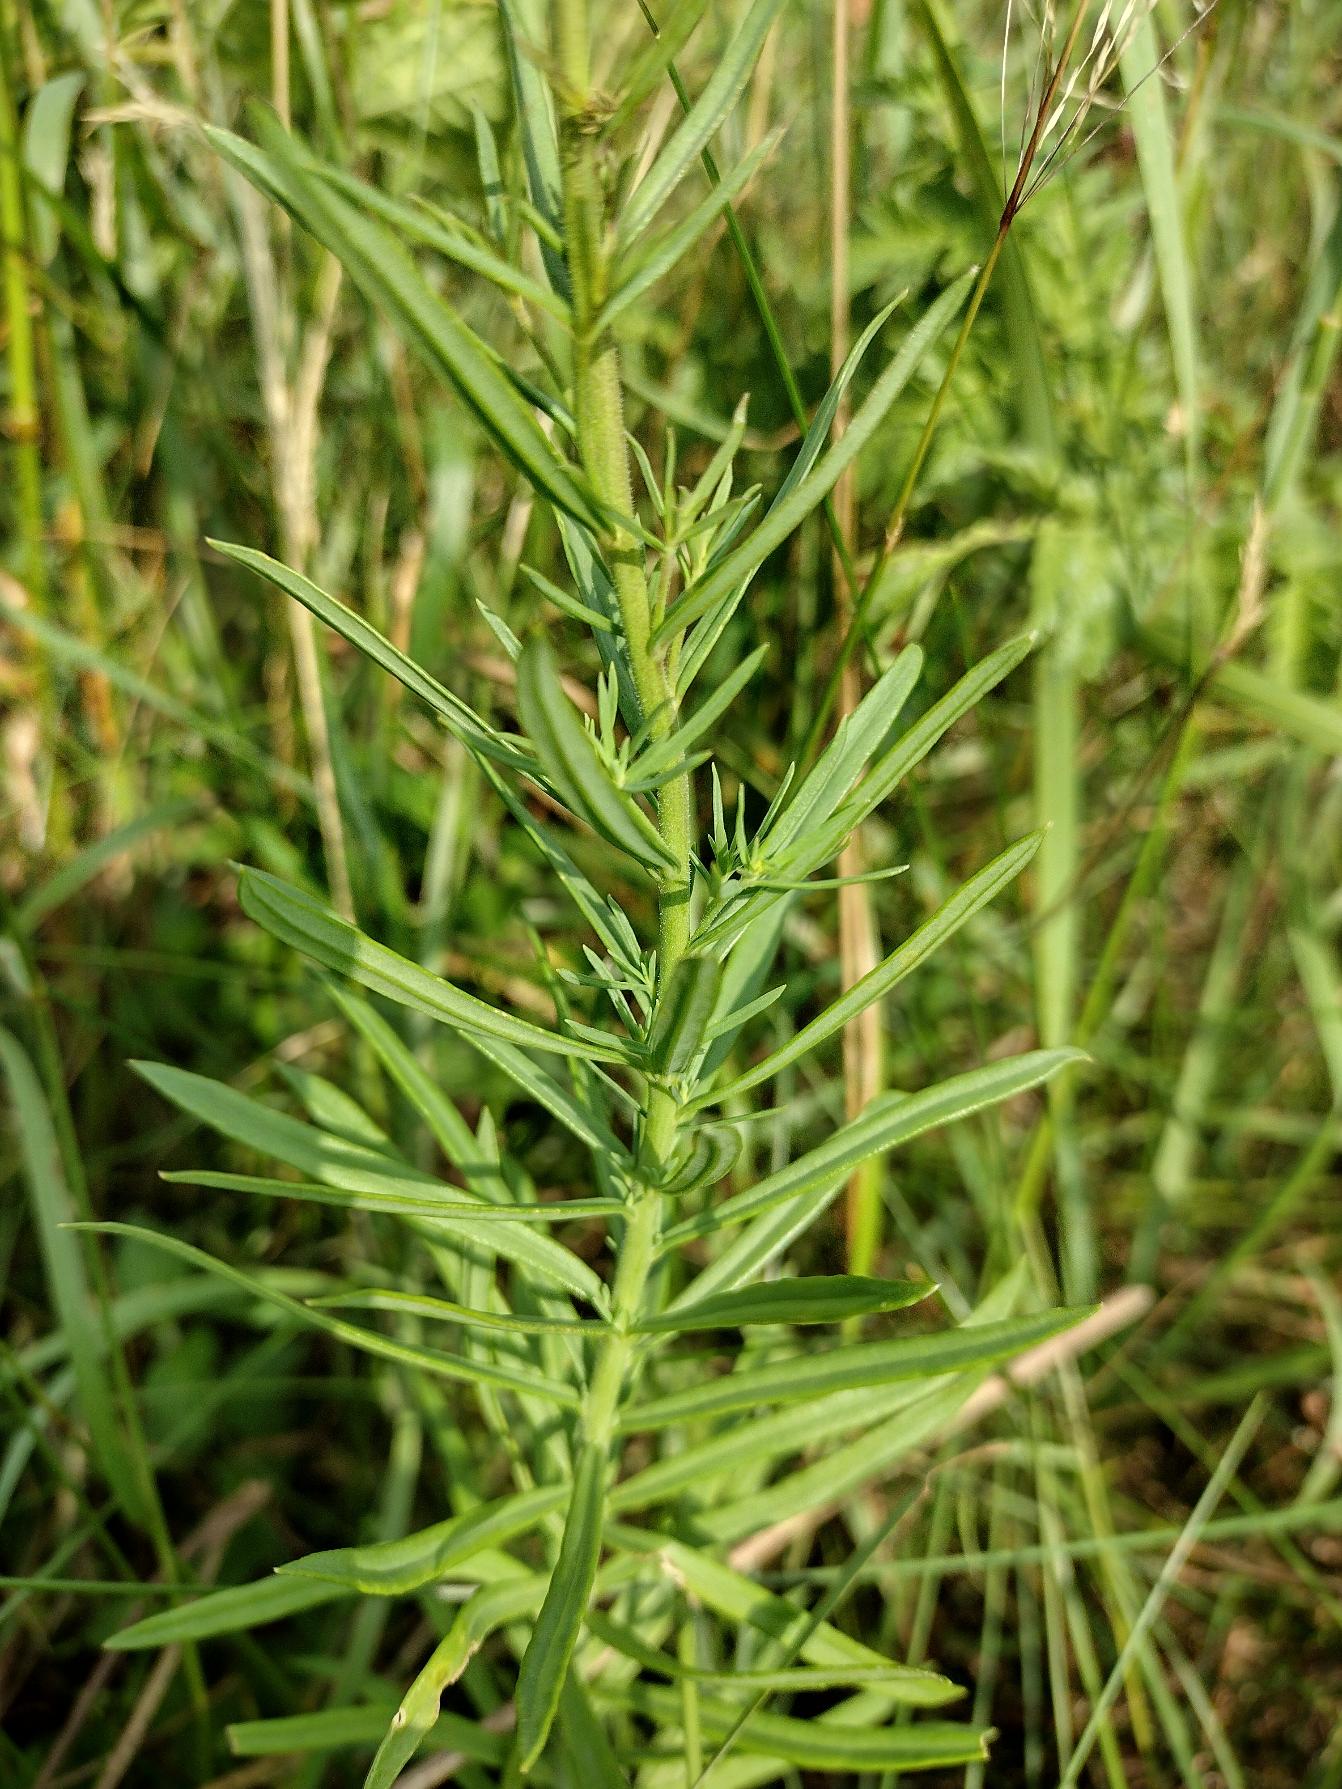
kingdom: Plantae
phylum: Tracheophyta
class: Magnoliopsida
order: Lamiales
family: Plantaginaceae
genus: Linaria
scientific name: Linaria vulgaris
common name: Almindelig torskemund
